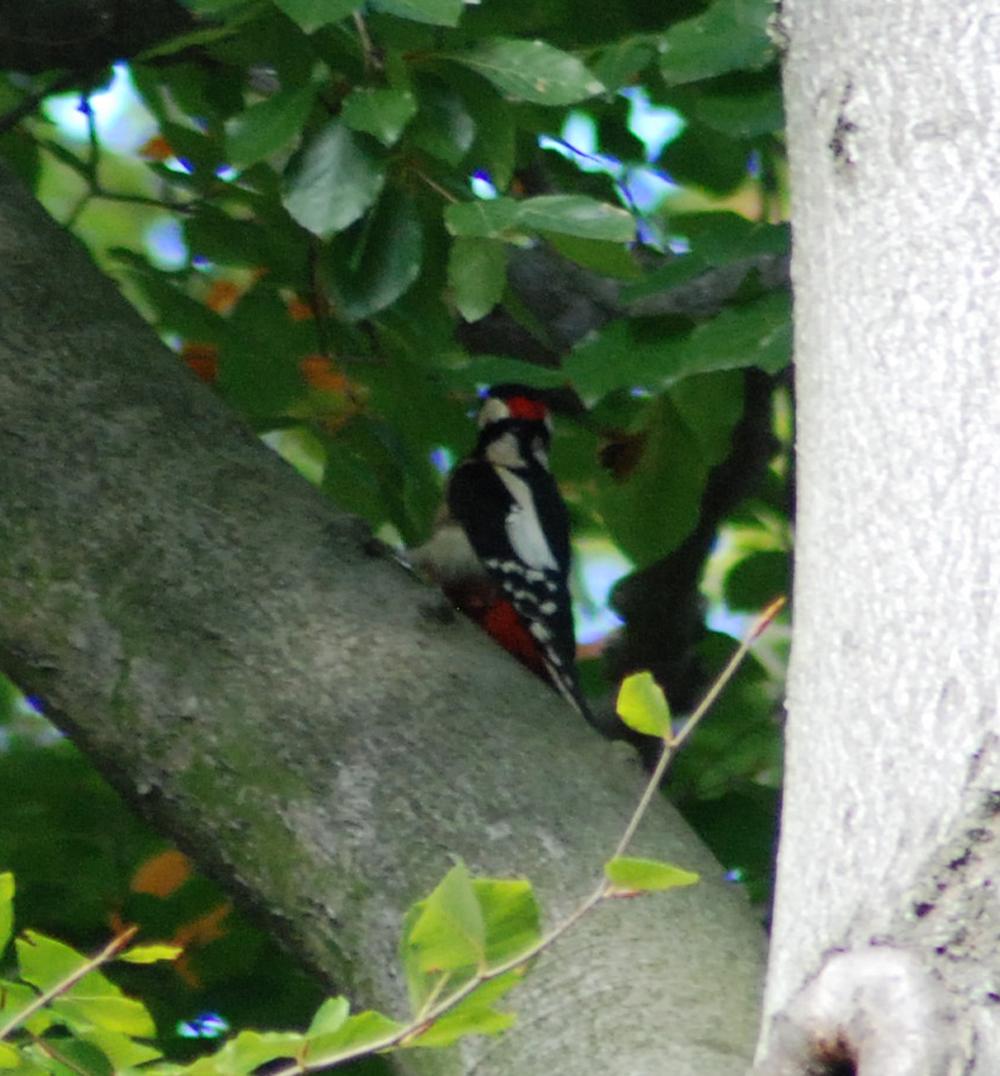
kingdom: Animalia
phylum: Chordata
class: Aves
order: Piciformes
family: Picidae
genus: Dendrocopos
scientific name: Dendrocopos major
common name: Great spotted woodpecker
